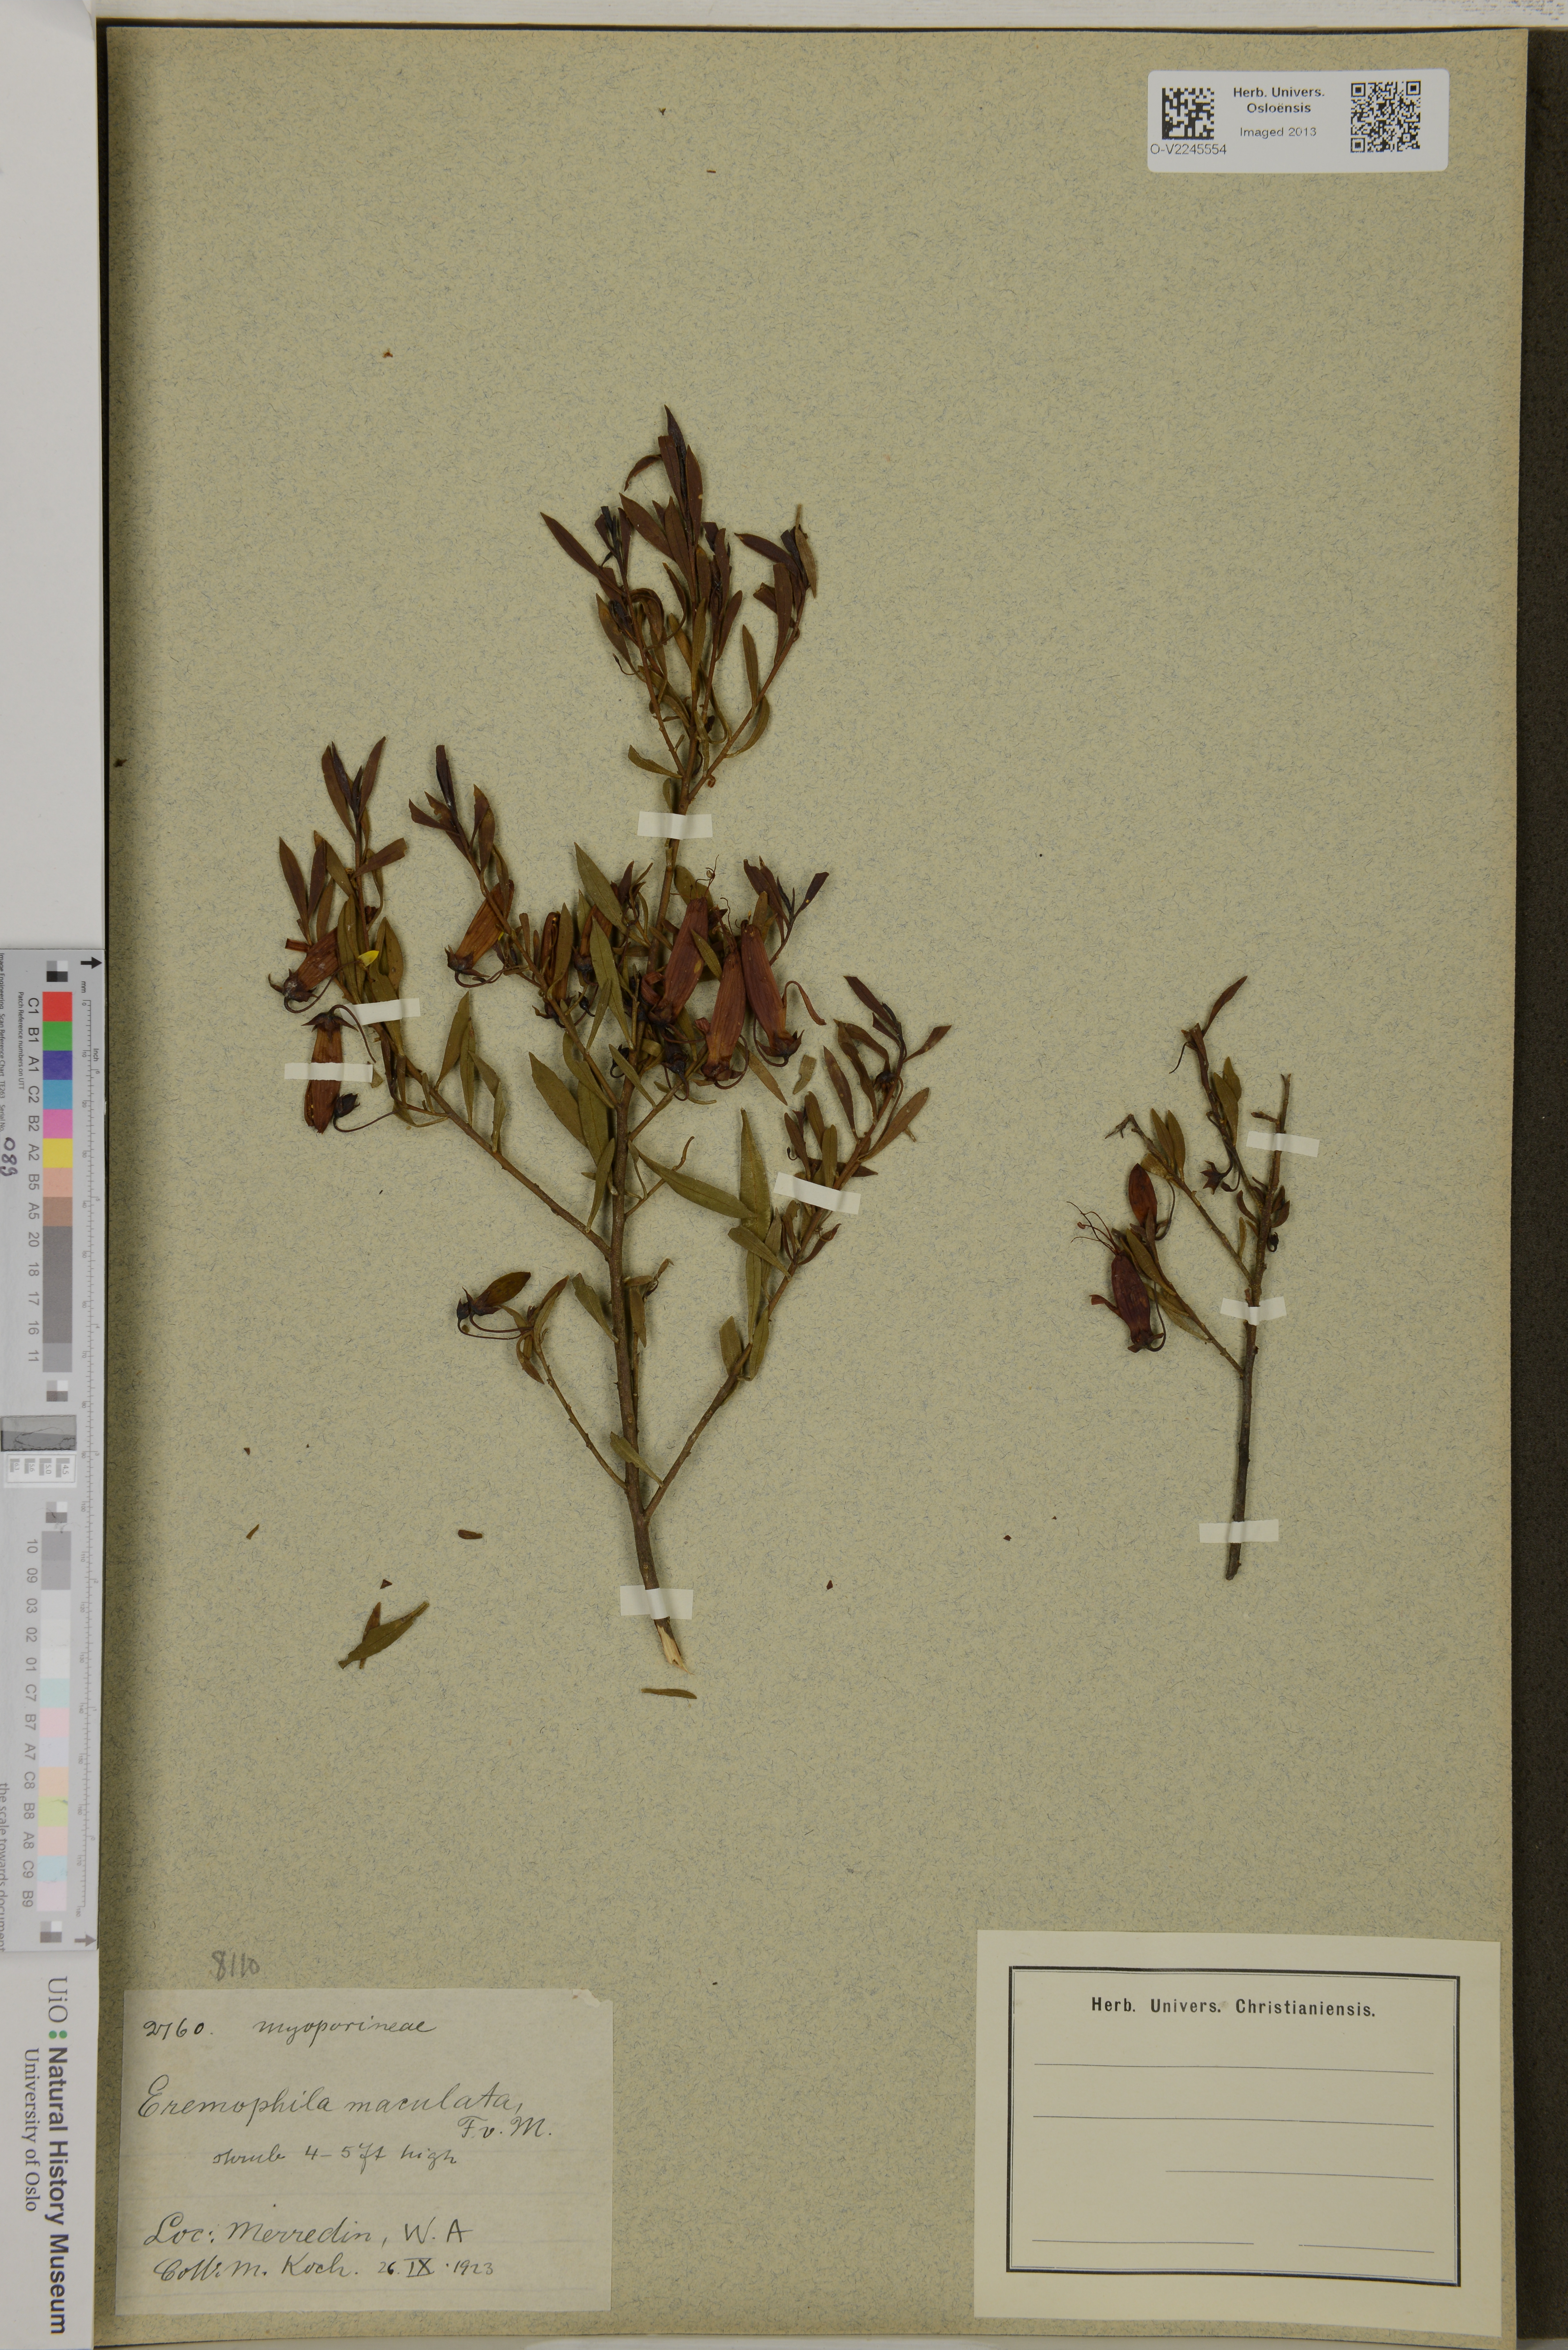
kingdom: Plantae
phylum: Tracheophyta
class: Magnoliopsida
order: Lamiales
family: Scrophulariaceae
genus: Eremophila
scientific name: Eremophila maculata
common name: Fuchsiabush
